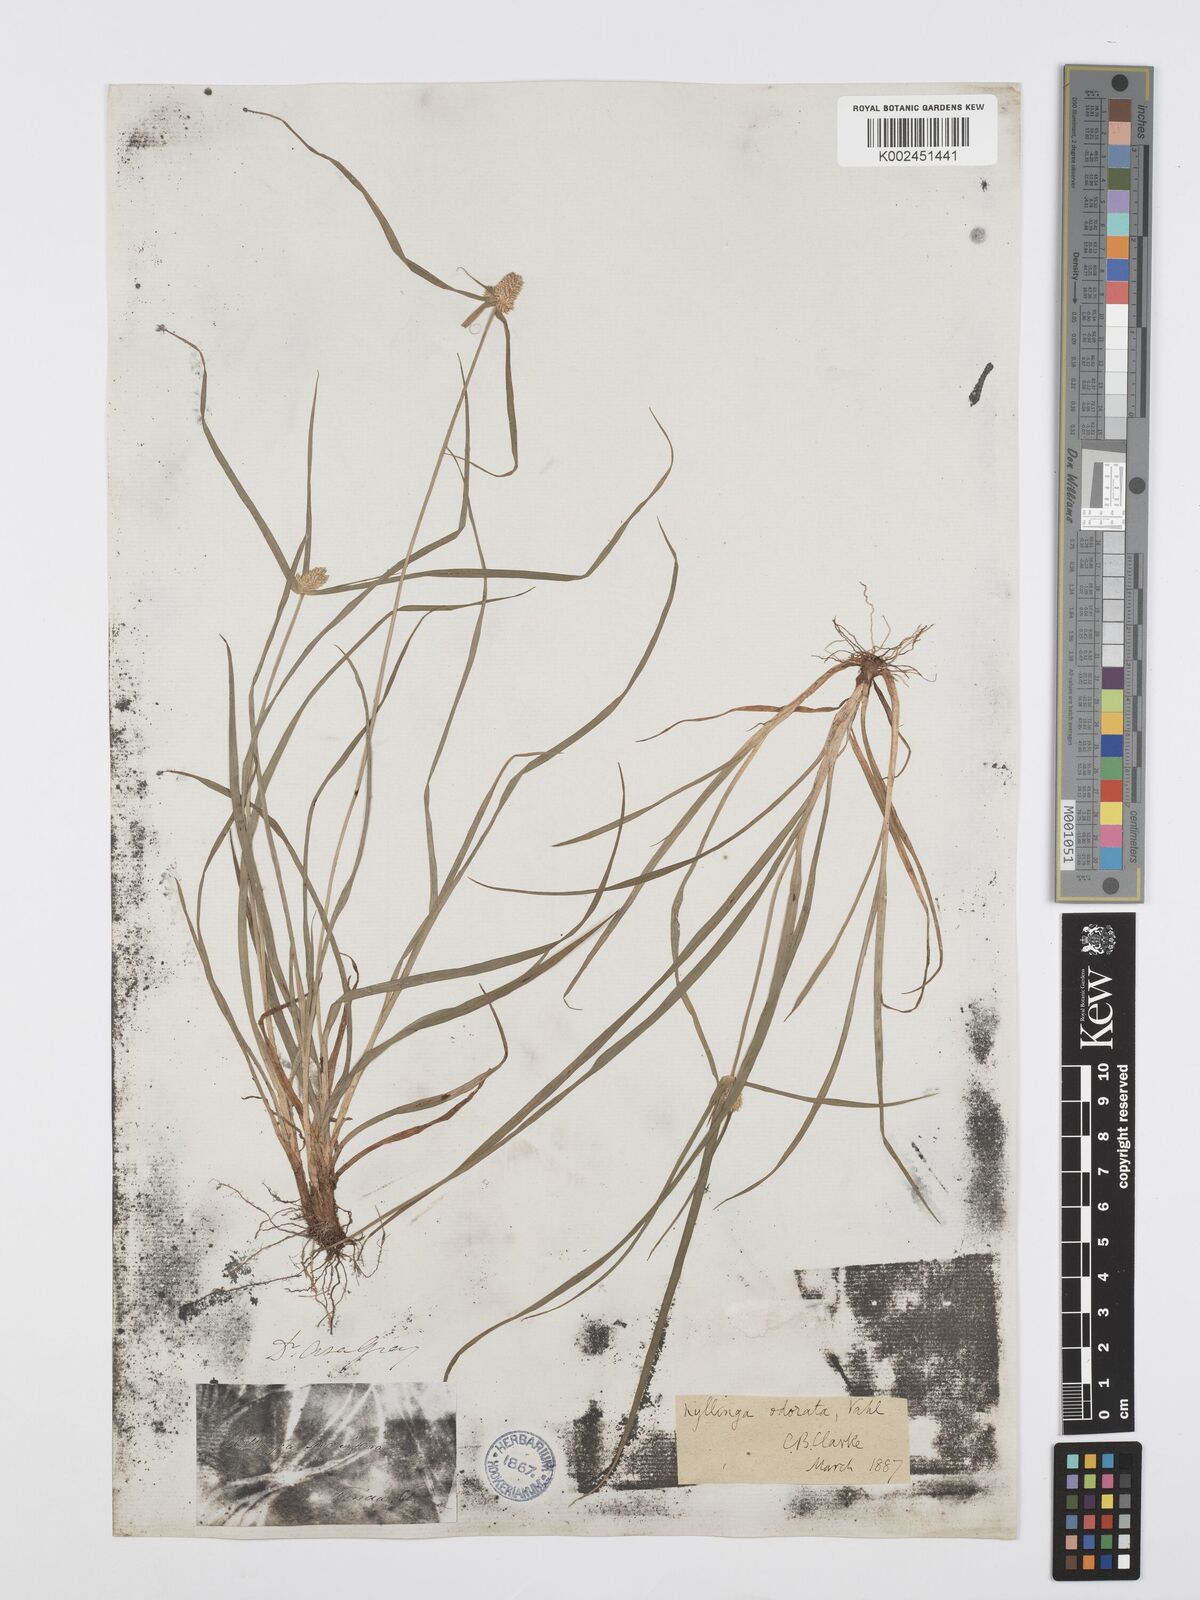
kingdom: Plantae
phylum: Tracheophyta
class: Liliopsida
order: Poales
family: Cyperaceae
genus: Cyperus
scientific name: Cyperus
